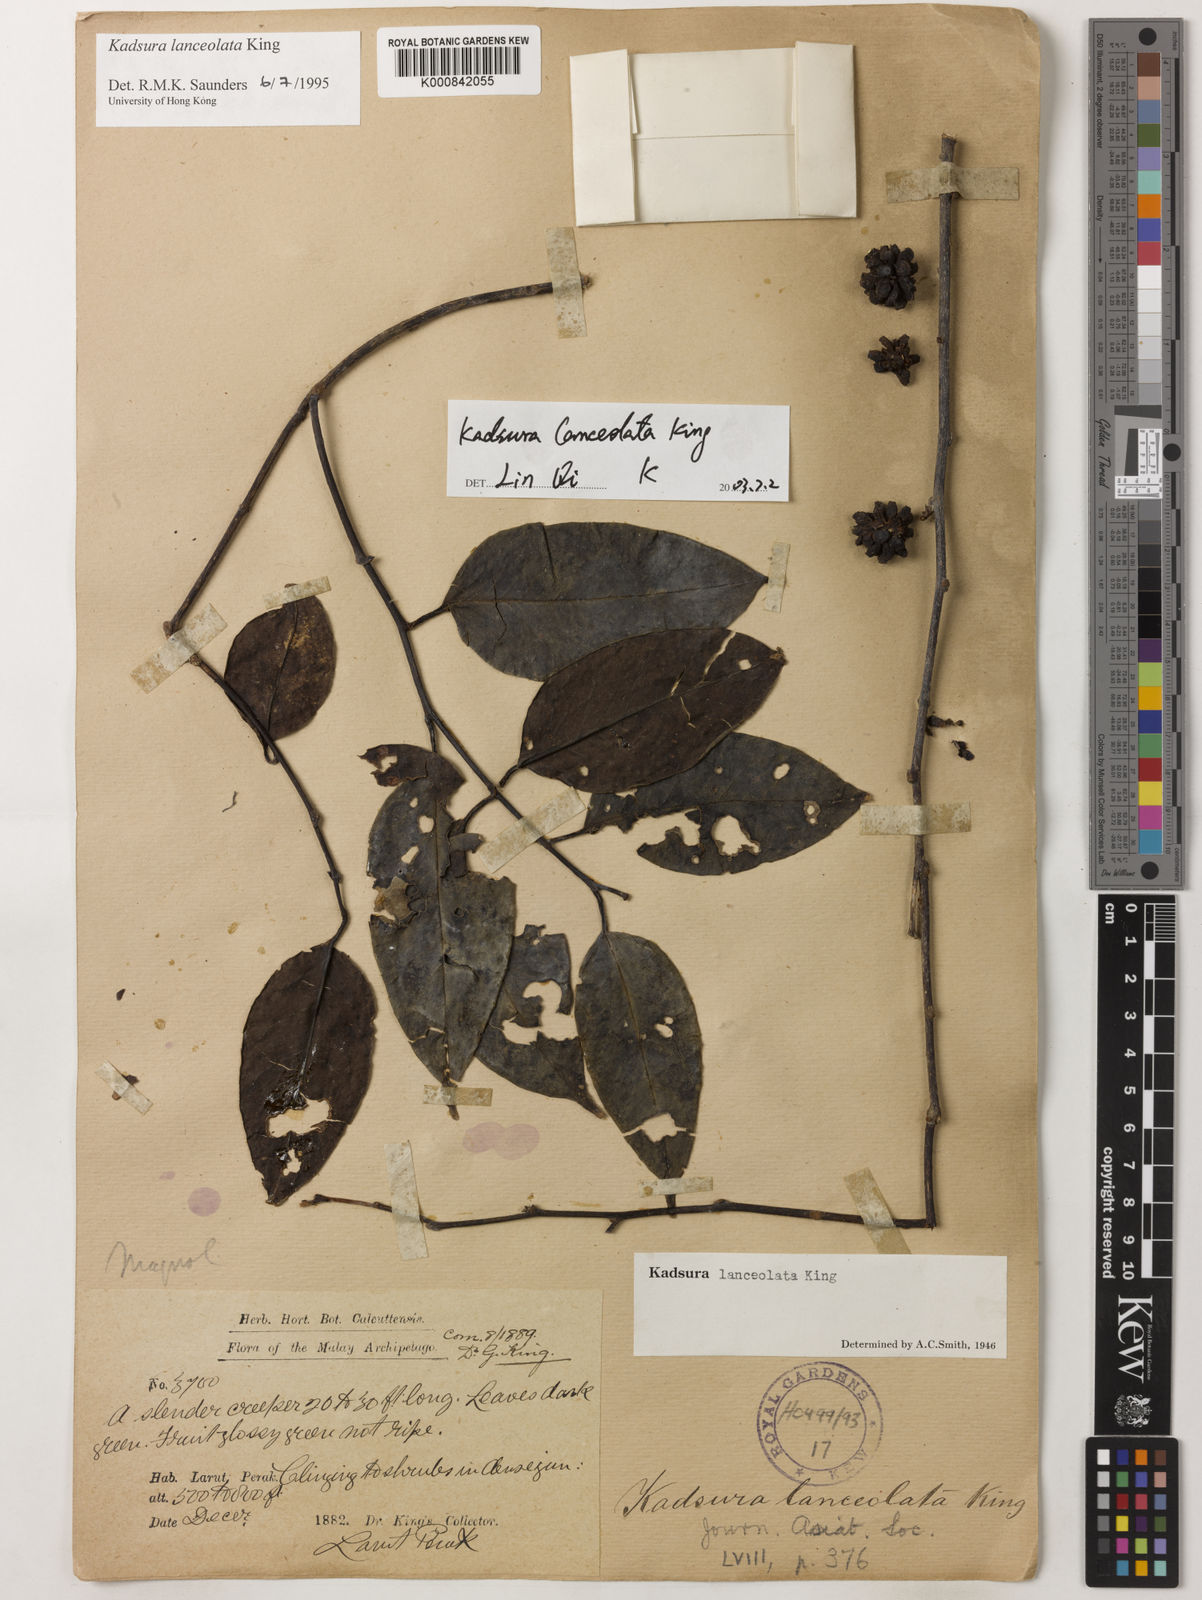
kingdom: Plantae
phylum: Tracheophyta
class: Magnoliopsida
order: Austrobaileyales
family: Schisandraceae
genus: Kadsura
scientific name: Kadsura lanceolata
